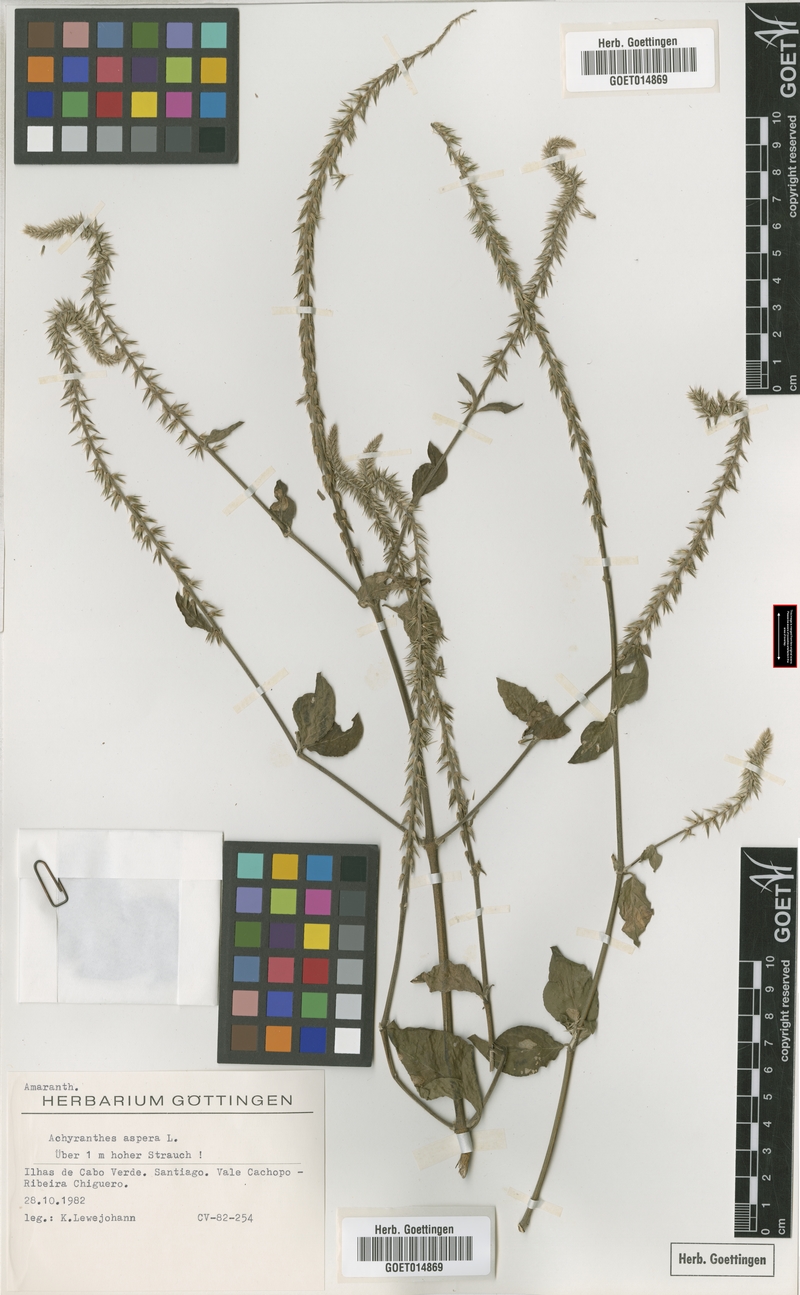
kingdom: Plantae
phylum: Tracheophyta
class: Magnoliopsida
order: Caryophyllales
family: Amaranthaceae
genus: Achyranthes
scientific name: Achyranthes aspera
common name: Devil's horsewhip
